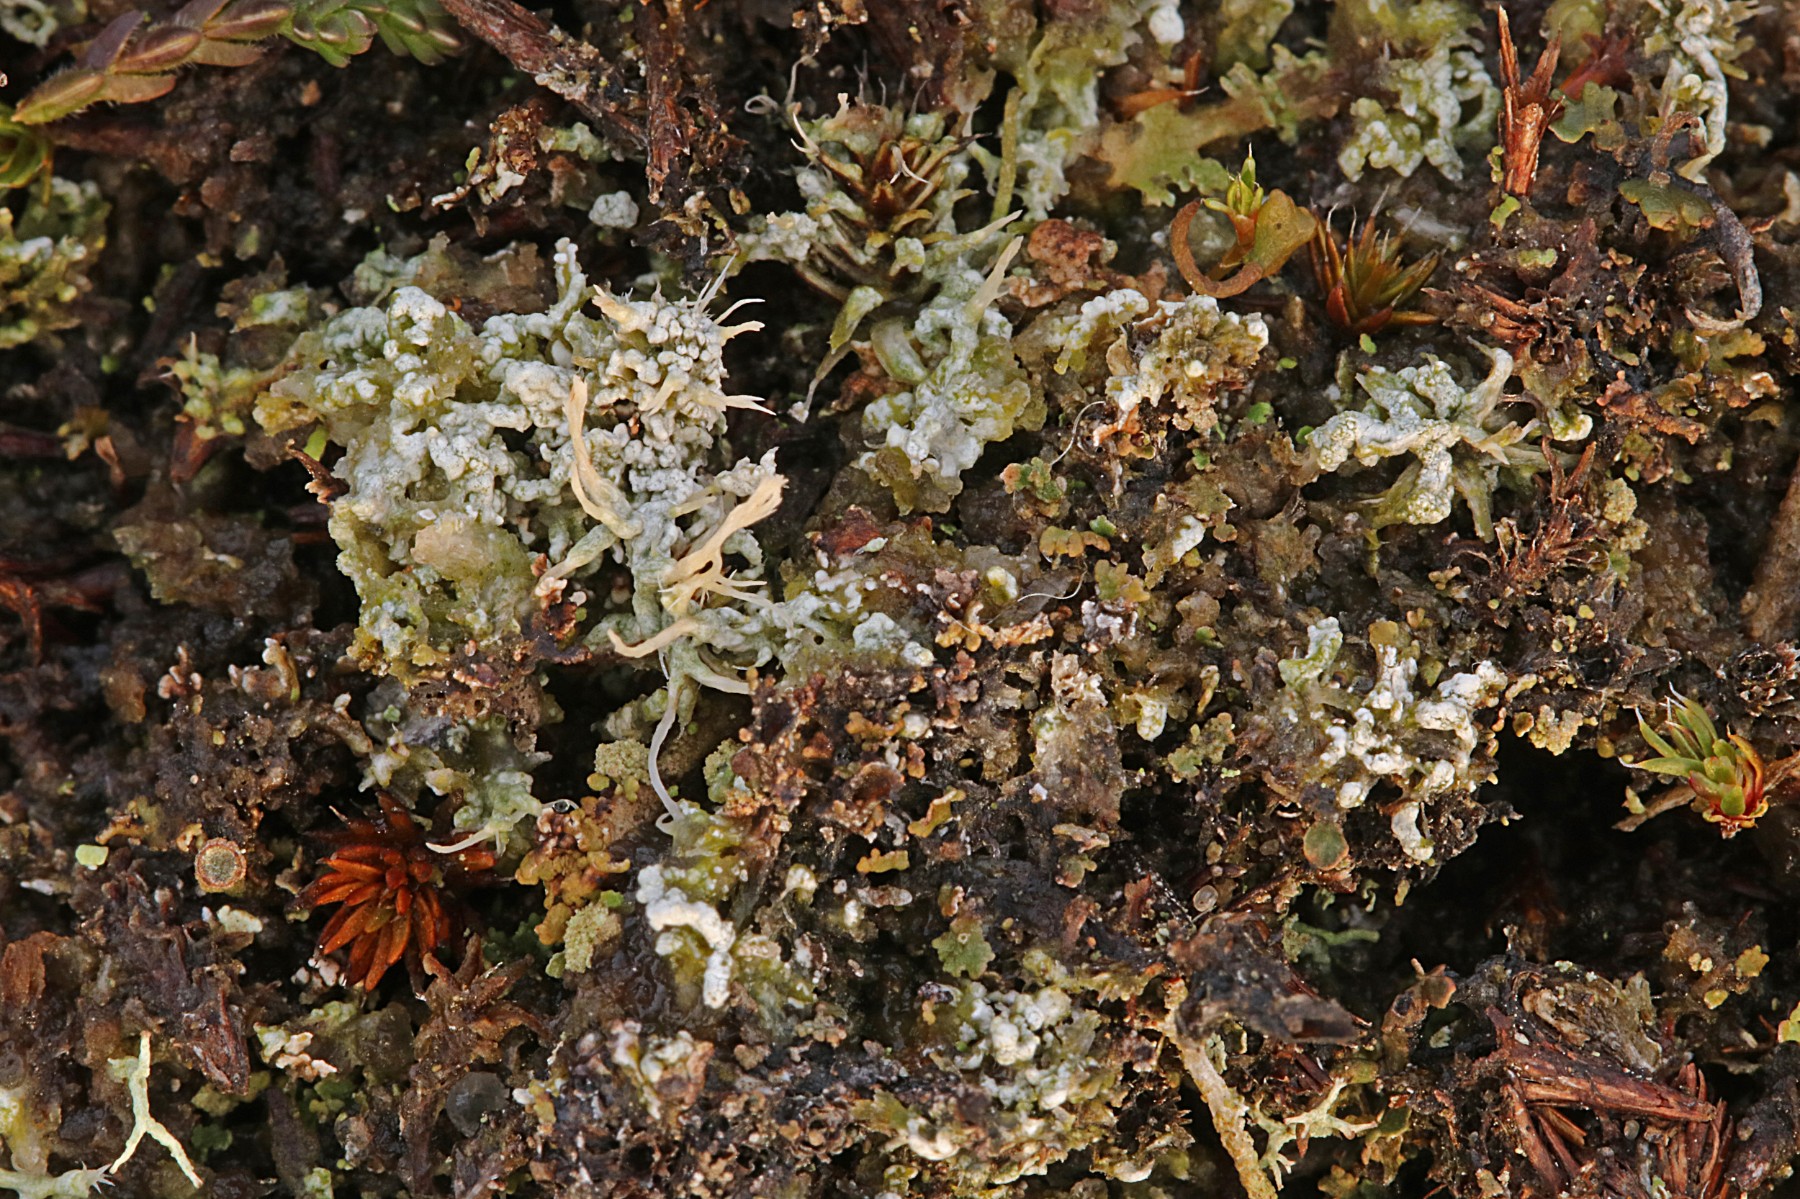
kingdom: Fungi
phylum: Ascomycota
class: Lecanoromycetes
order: Pertusariales
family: Ochrolechiaceae
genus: Ochrolechia
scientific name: Ochrolechia frigida
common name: fjeld-blegskivelav
